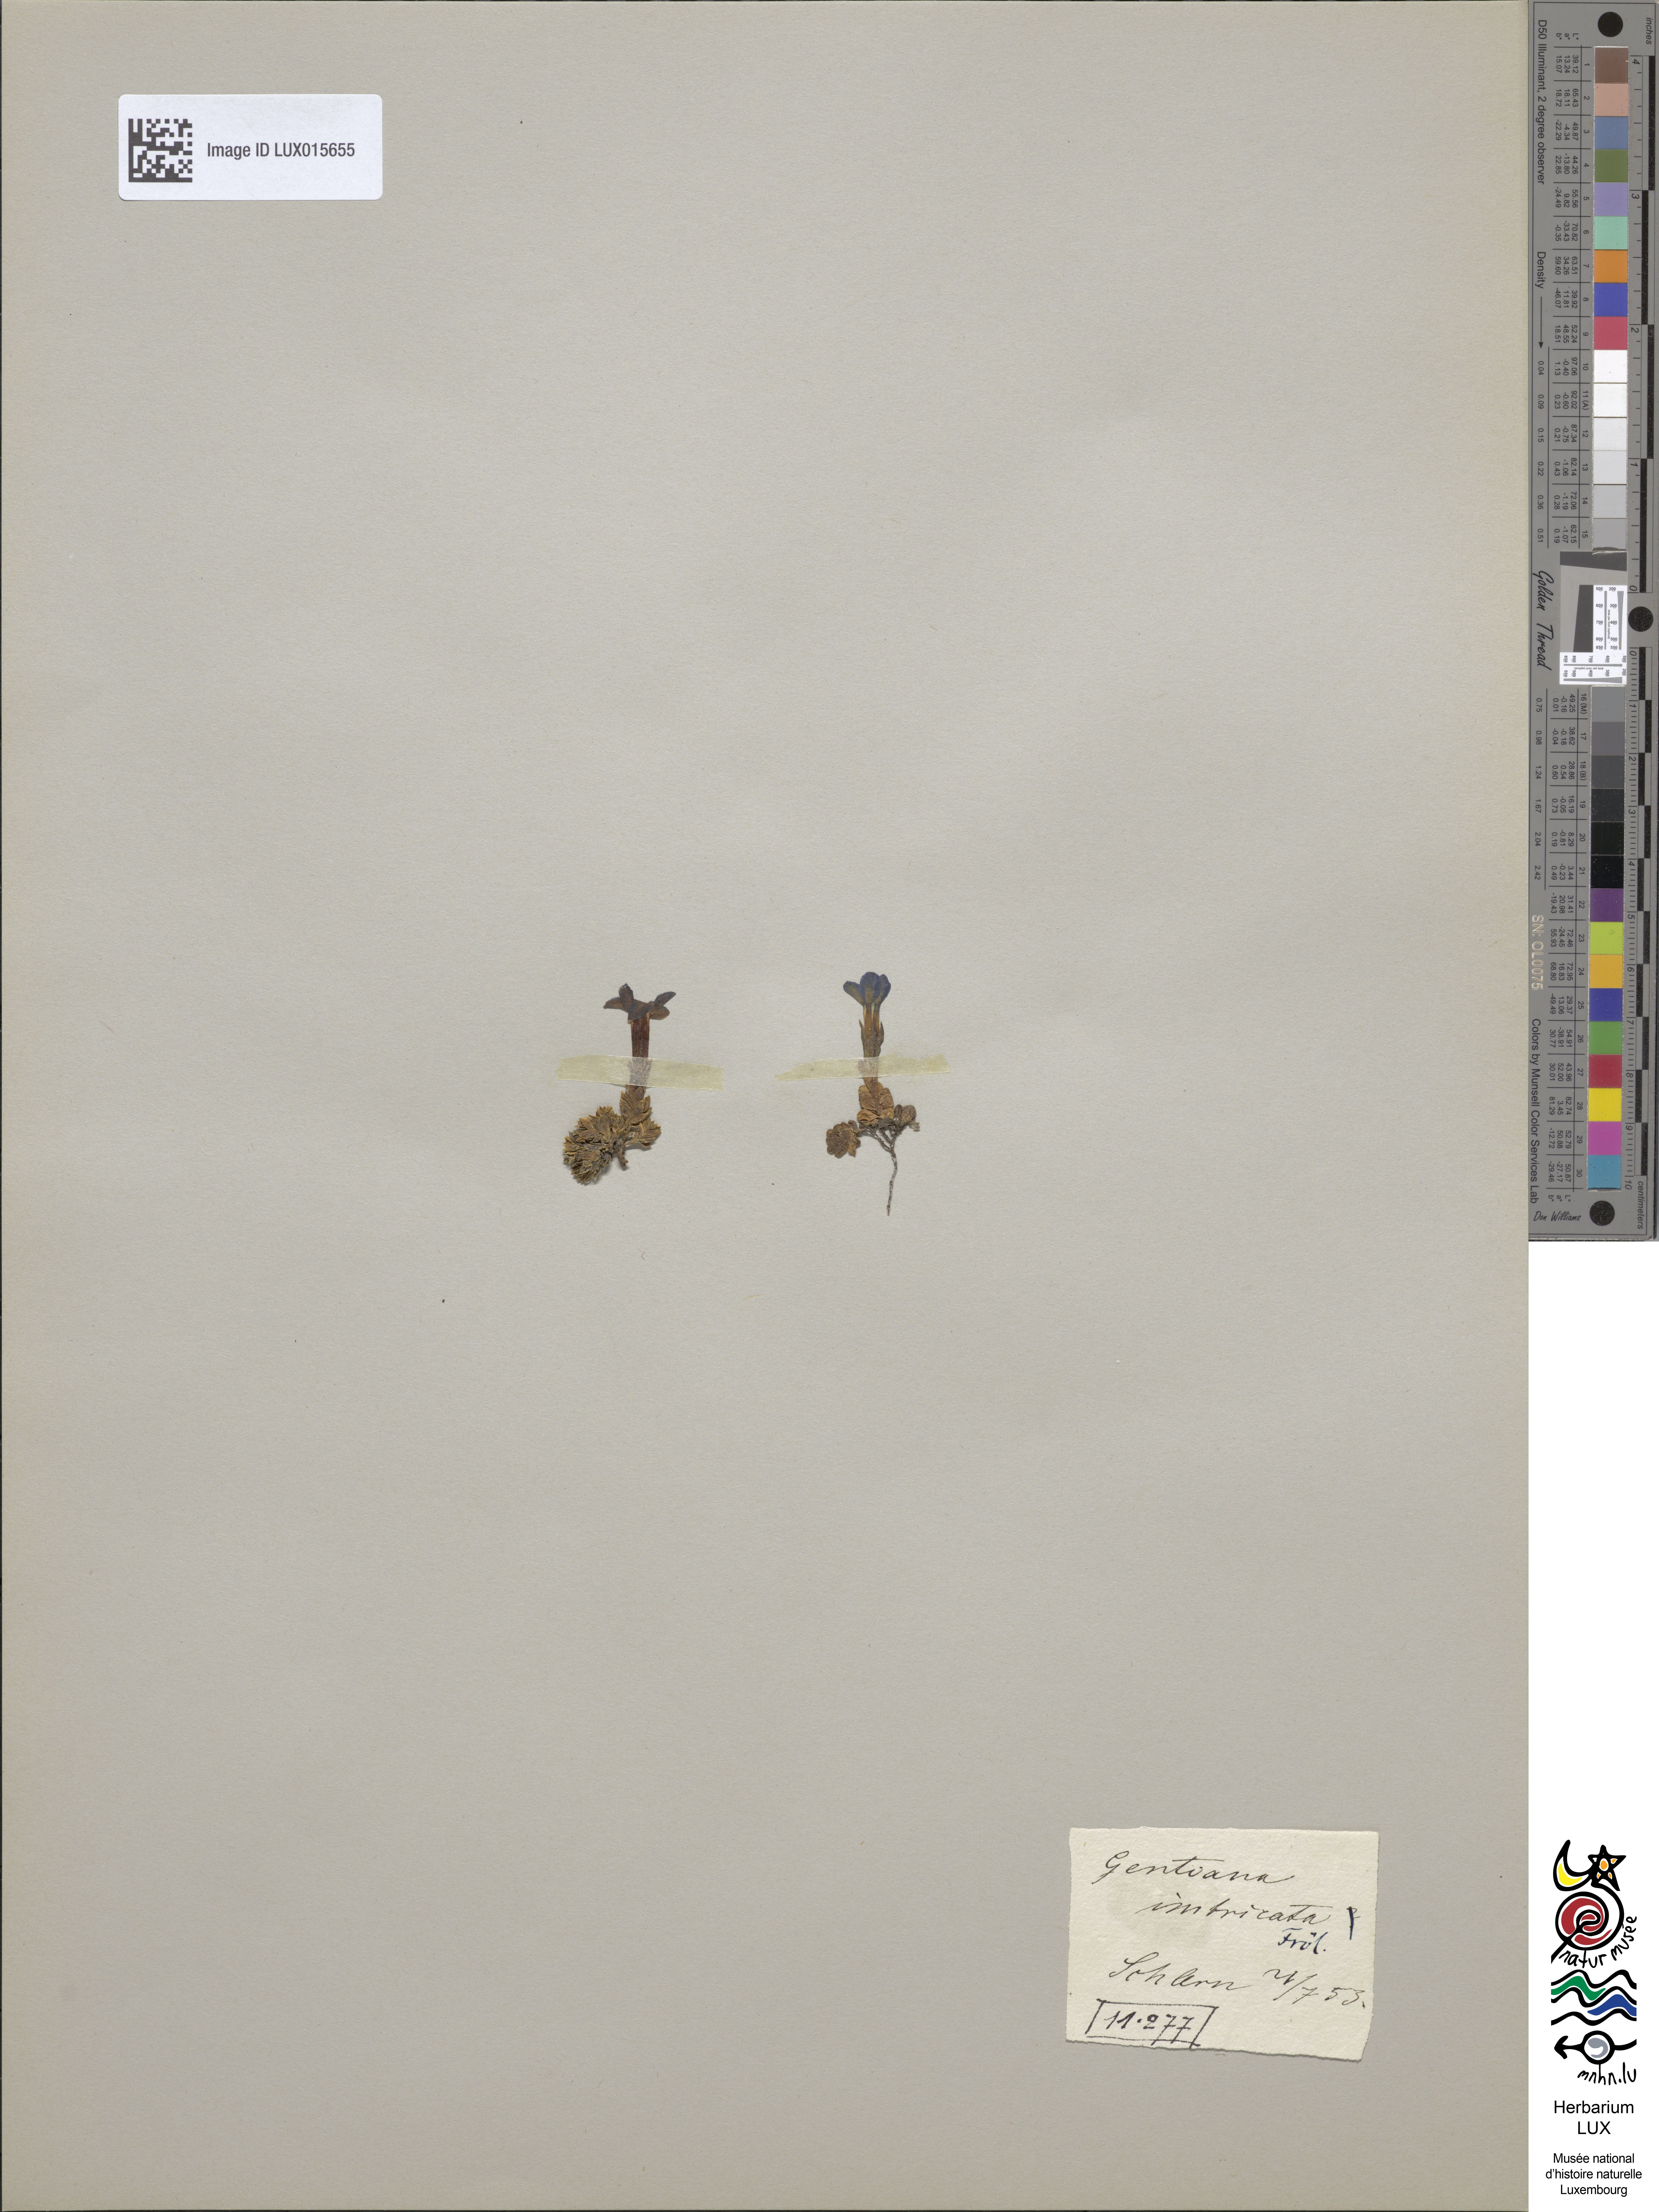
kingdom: Plantae
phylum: Tracheophyta
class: Magnoliopsida
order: Gentianales
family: Gentianaceae
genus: Gentiana
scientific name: Gentiana terglouensis
